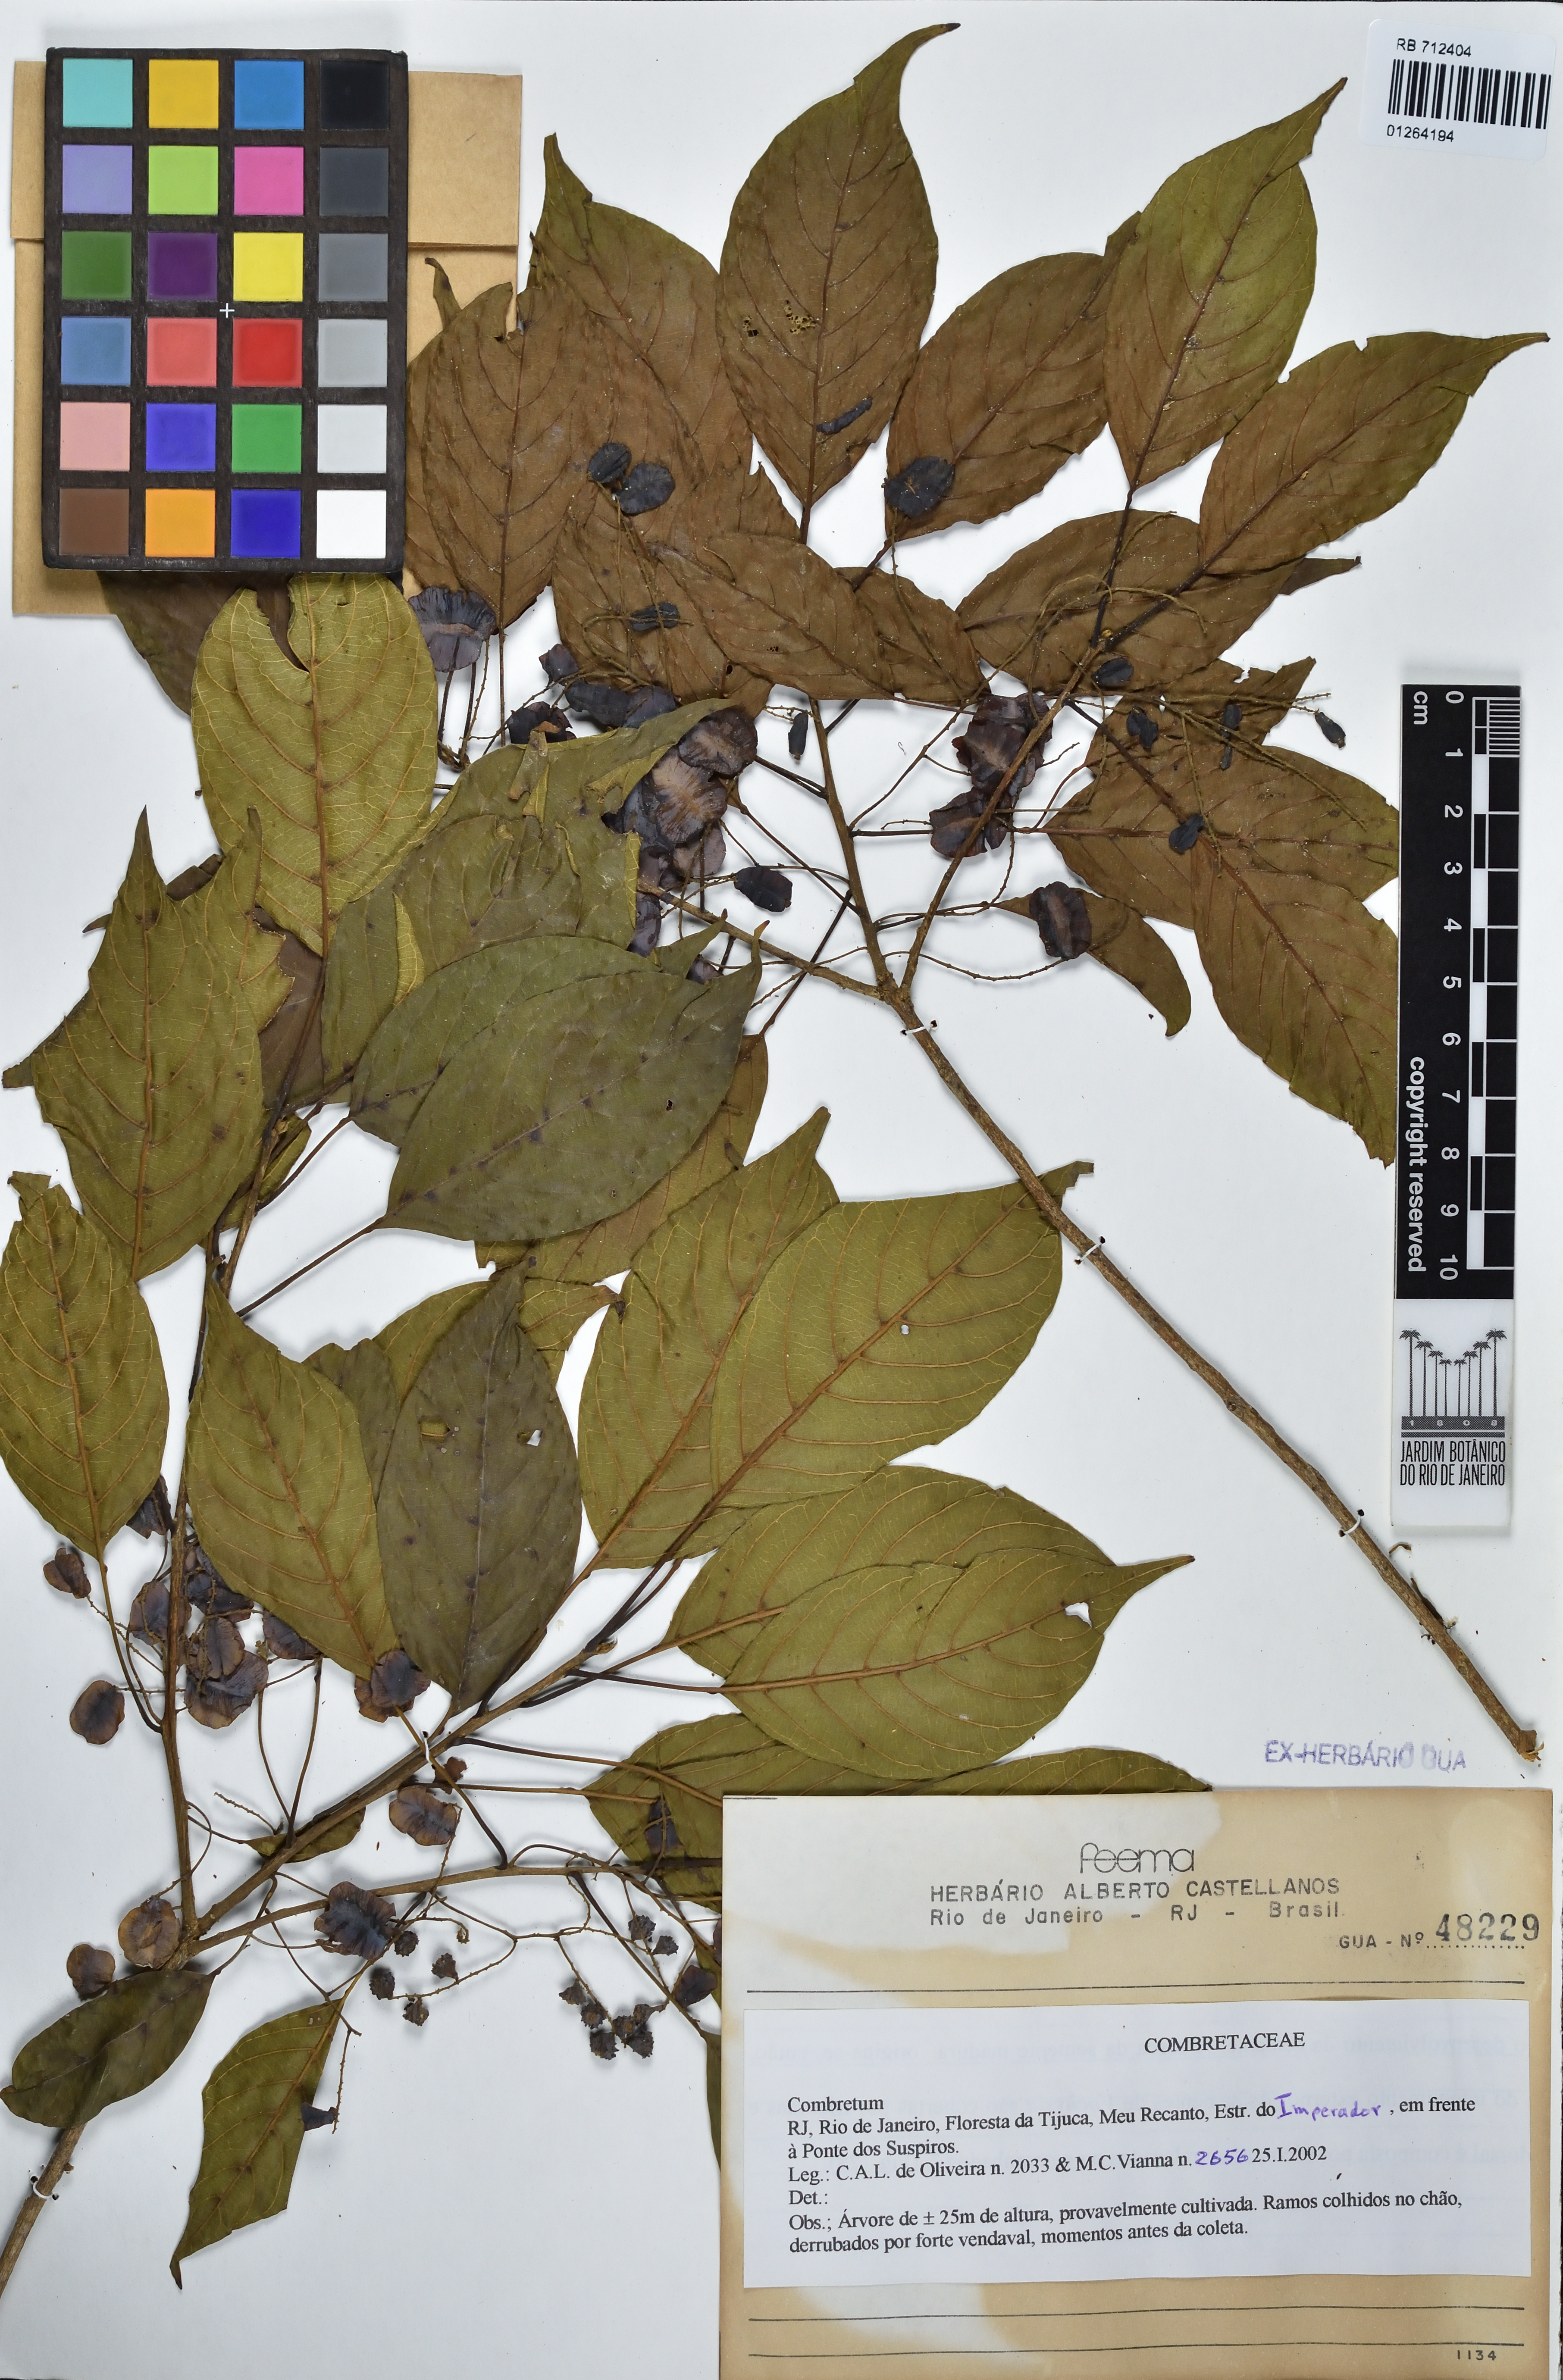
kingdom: Plantae
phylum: Tracheophyta
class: Magnoliopsida
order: Myrtales
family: Combretaceae
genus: Combretum
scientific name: Combretum
